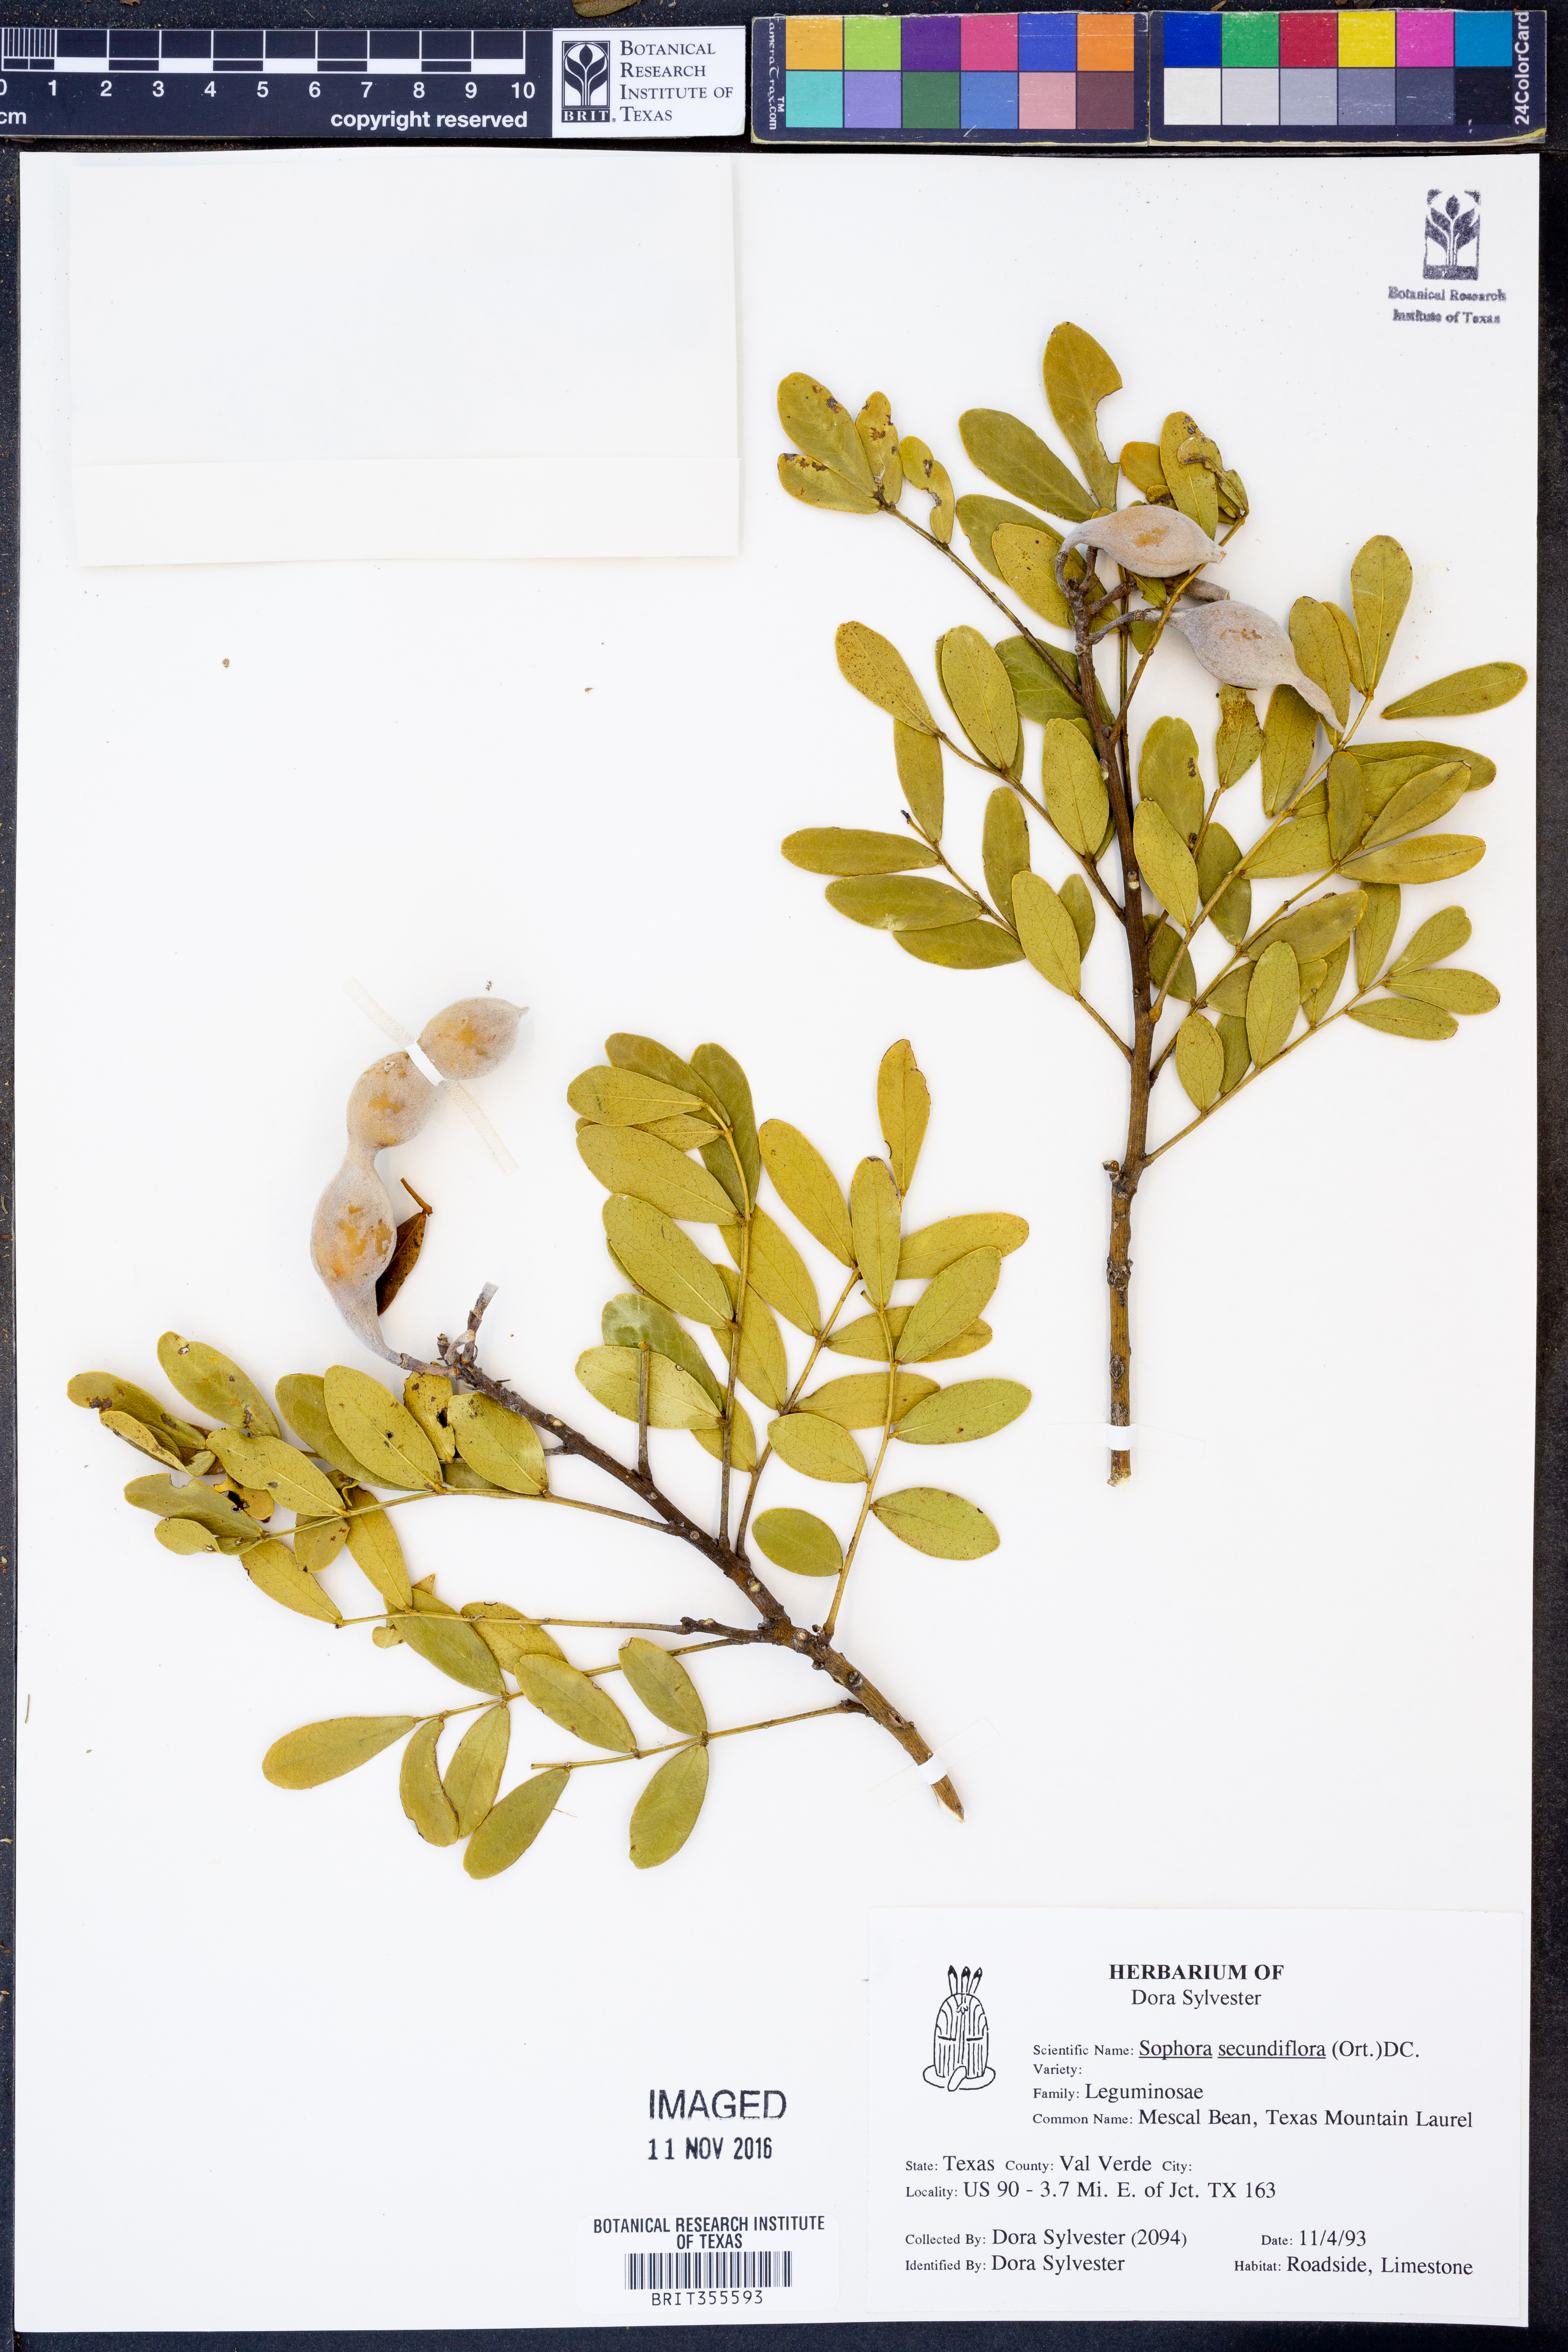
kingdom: Plantae
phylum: Tracheophyta
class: Magnoliopsida
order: Fabales
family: Fabaceae
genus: Dermatophyllum
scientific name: Dermatophyllum secundiflorum
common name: Texas-mountain-laurel
